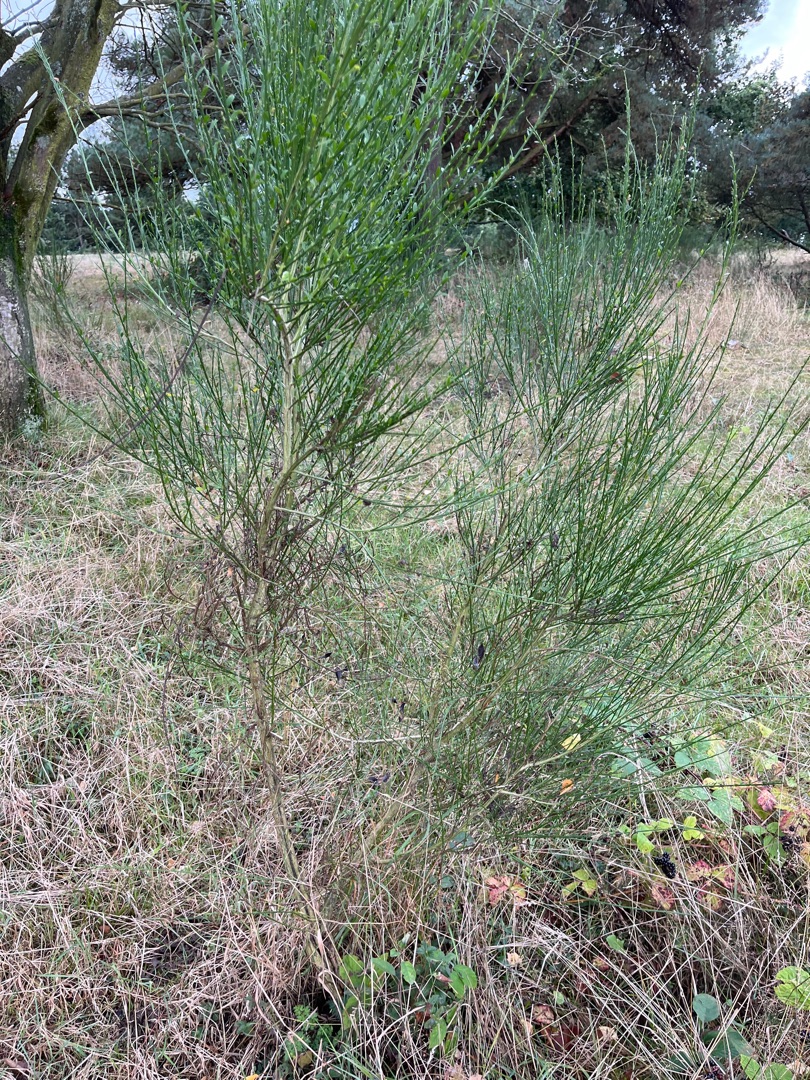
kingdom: Plantae
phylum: Tracheophyta
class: Magnoliopsida
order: Fabales
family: Fabaceae
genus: Cytisus
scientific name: Cytisus scoparius
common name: Almindelig gyvel
